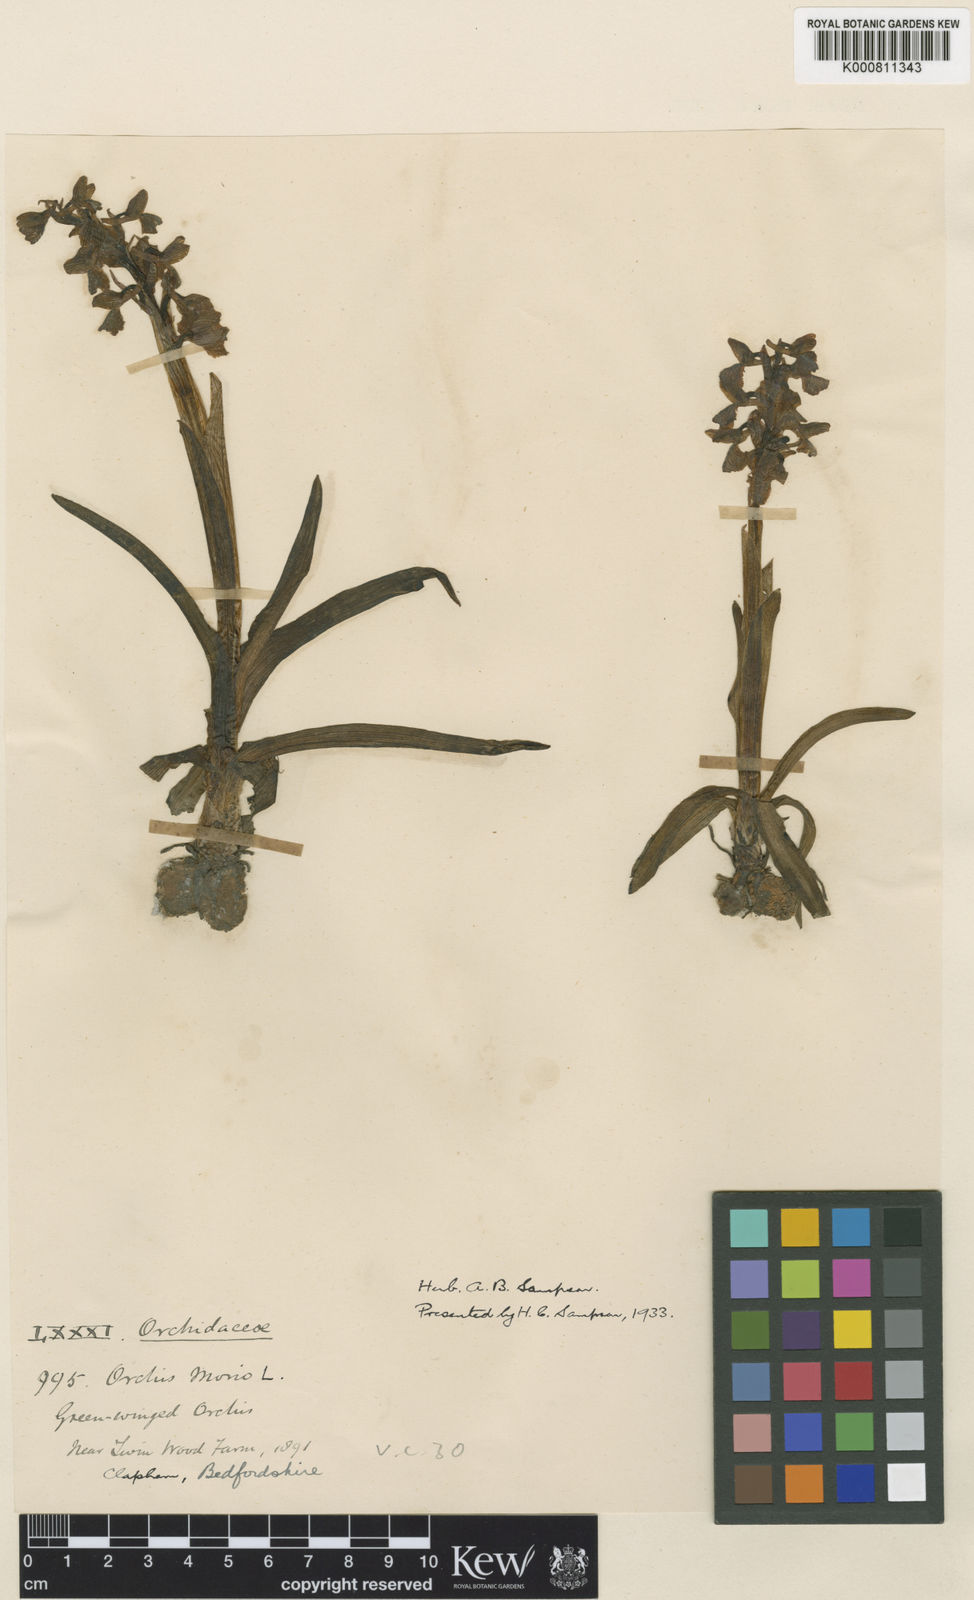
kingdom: Plantae
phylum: Tracheophyta
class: Liliopsida
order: Asparagales
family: Orchidaceae
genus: Anacamptis
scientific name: Anacamptis morio
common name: Green-winged orchid
